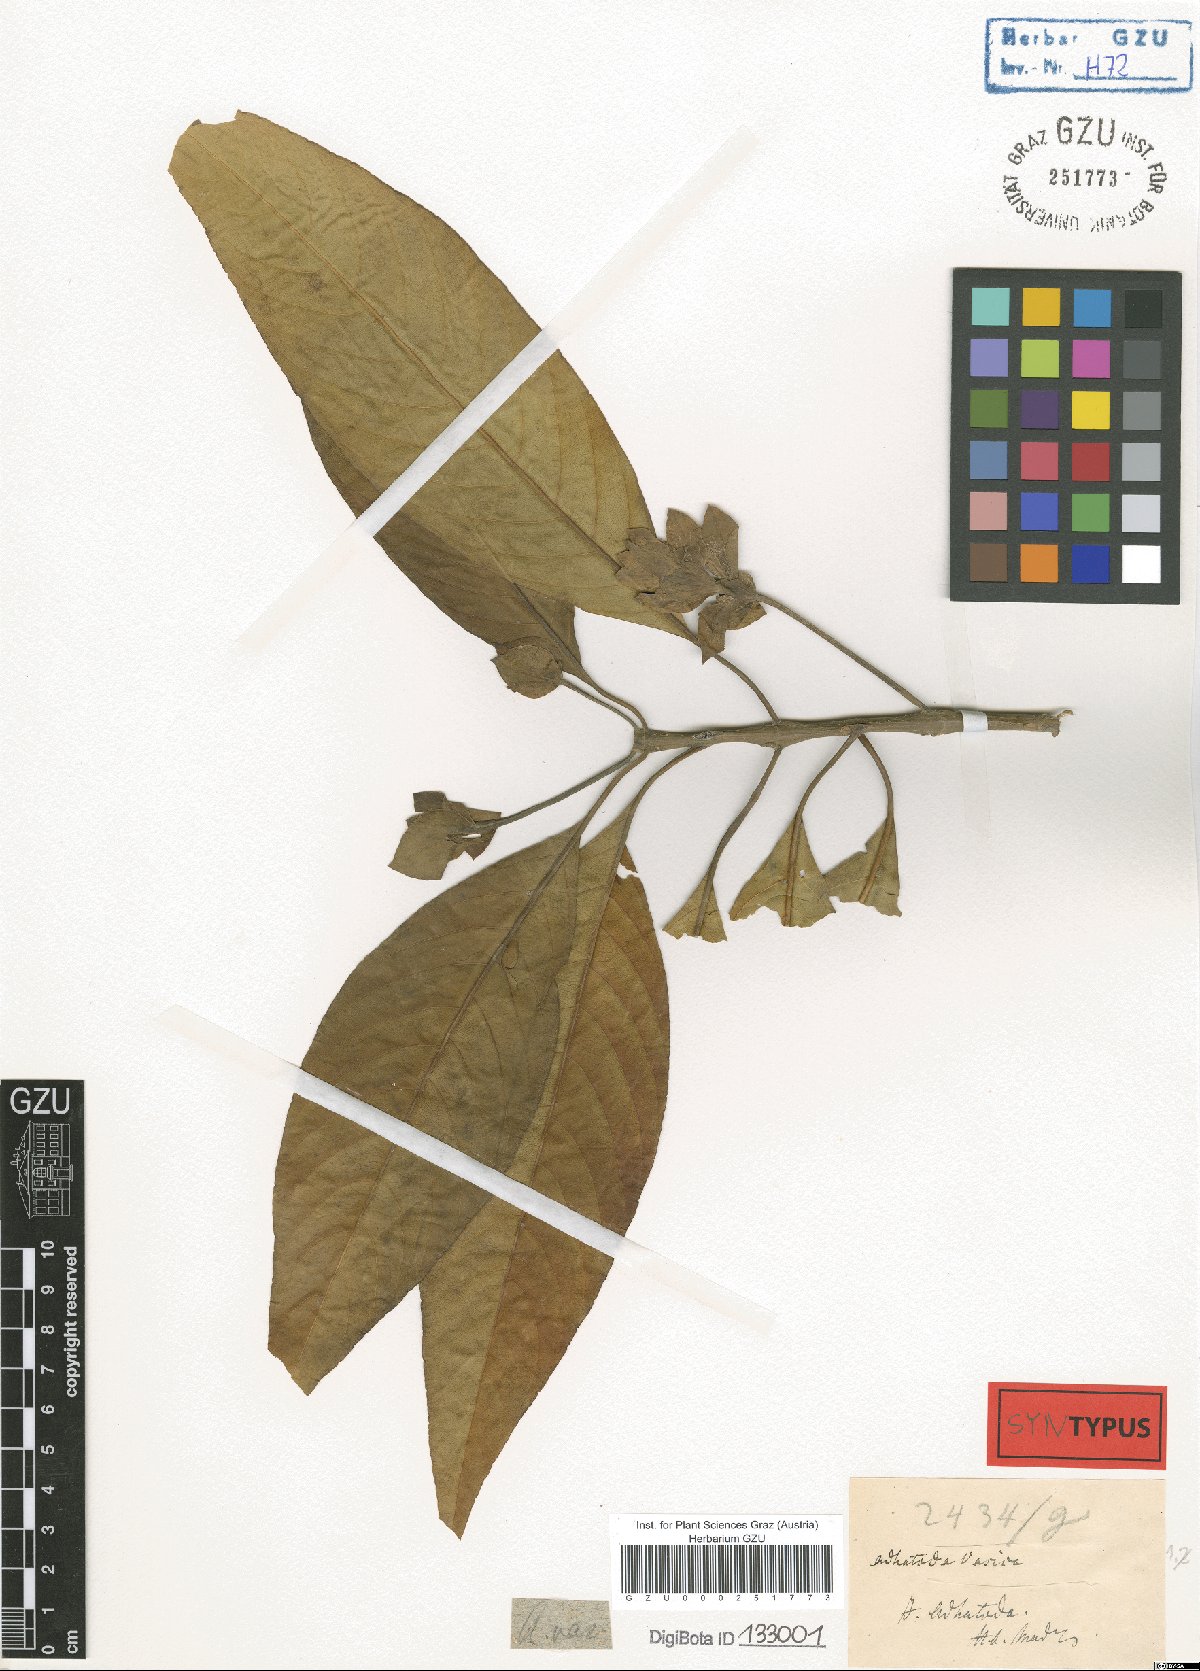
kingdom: Plantae
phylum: Tracheophyta
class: Magnoliopsida
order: Lamiales
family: Acanthaceae
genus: Justicia
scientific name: Justicia adhatoda
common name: Malabar nut
